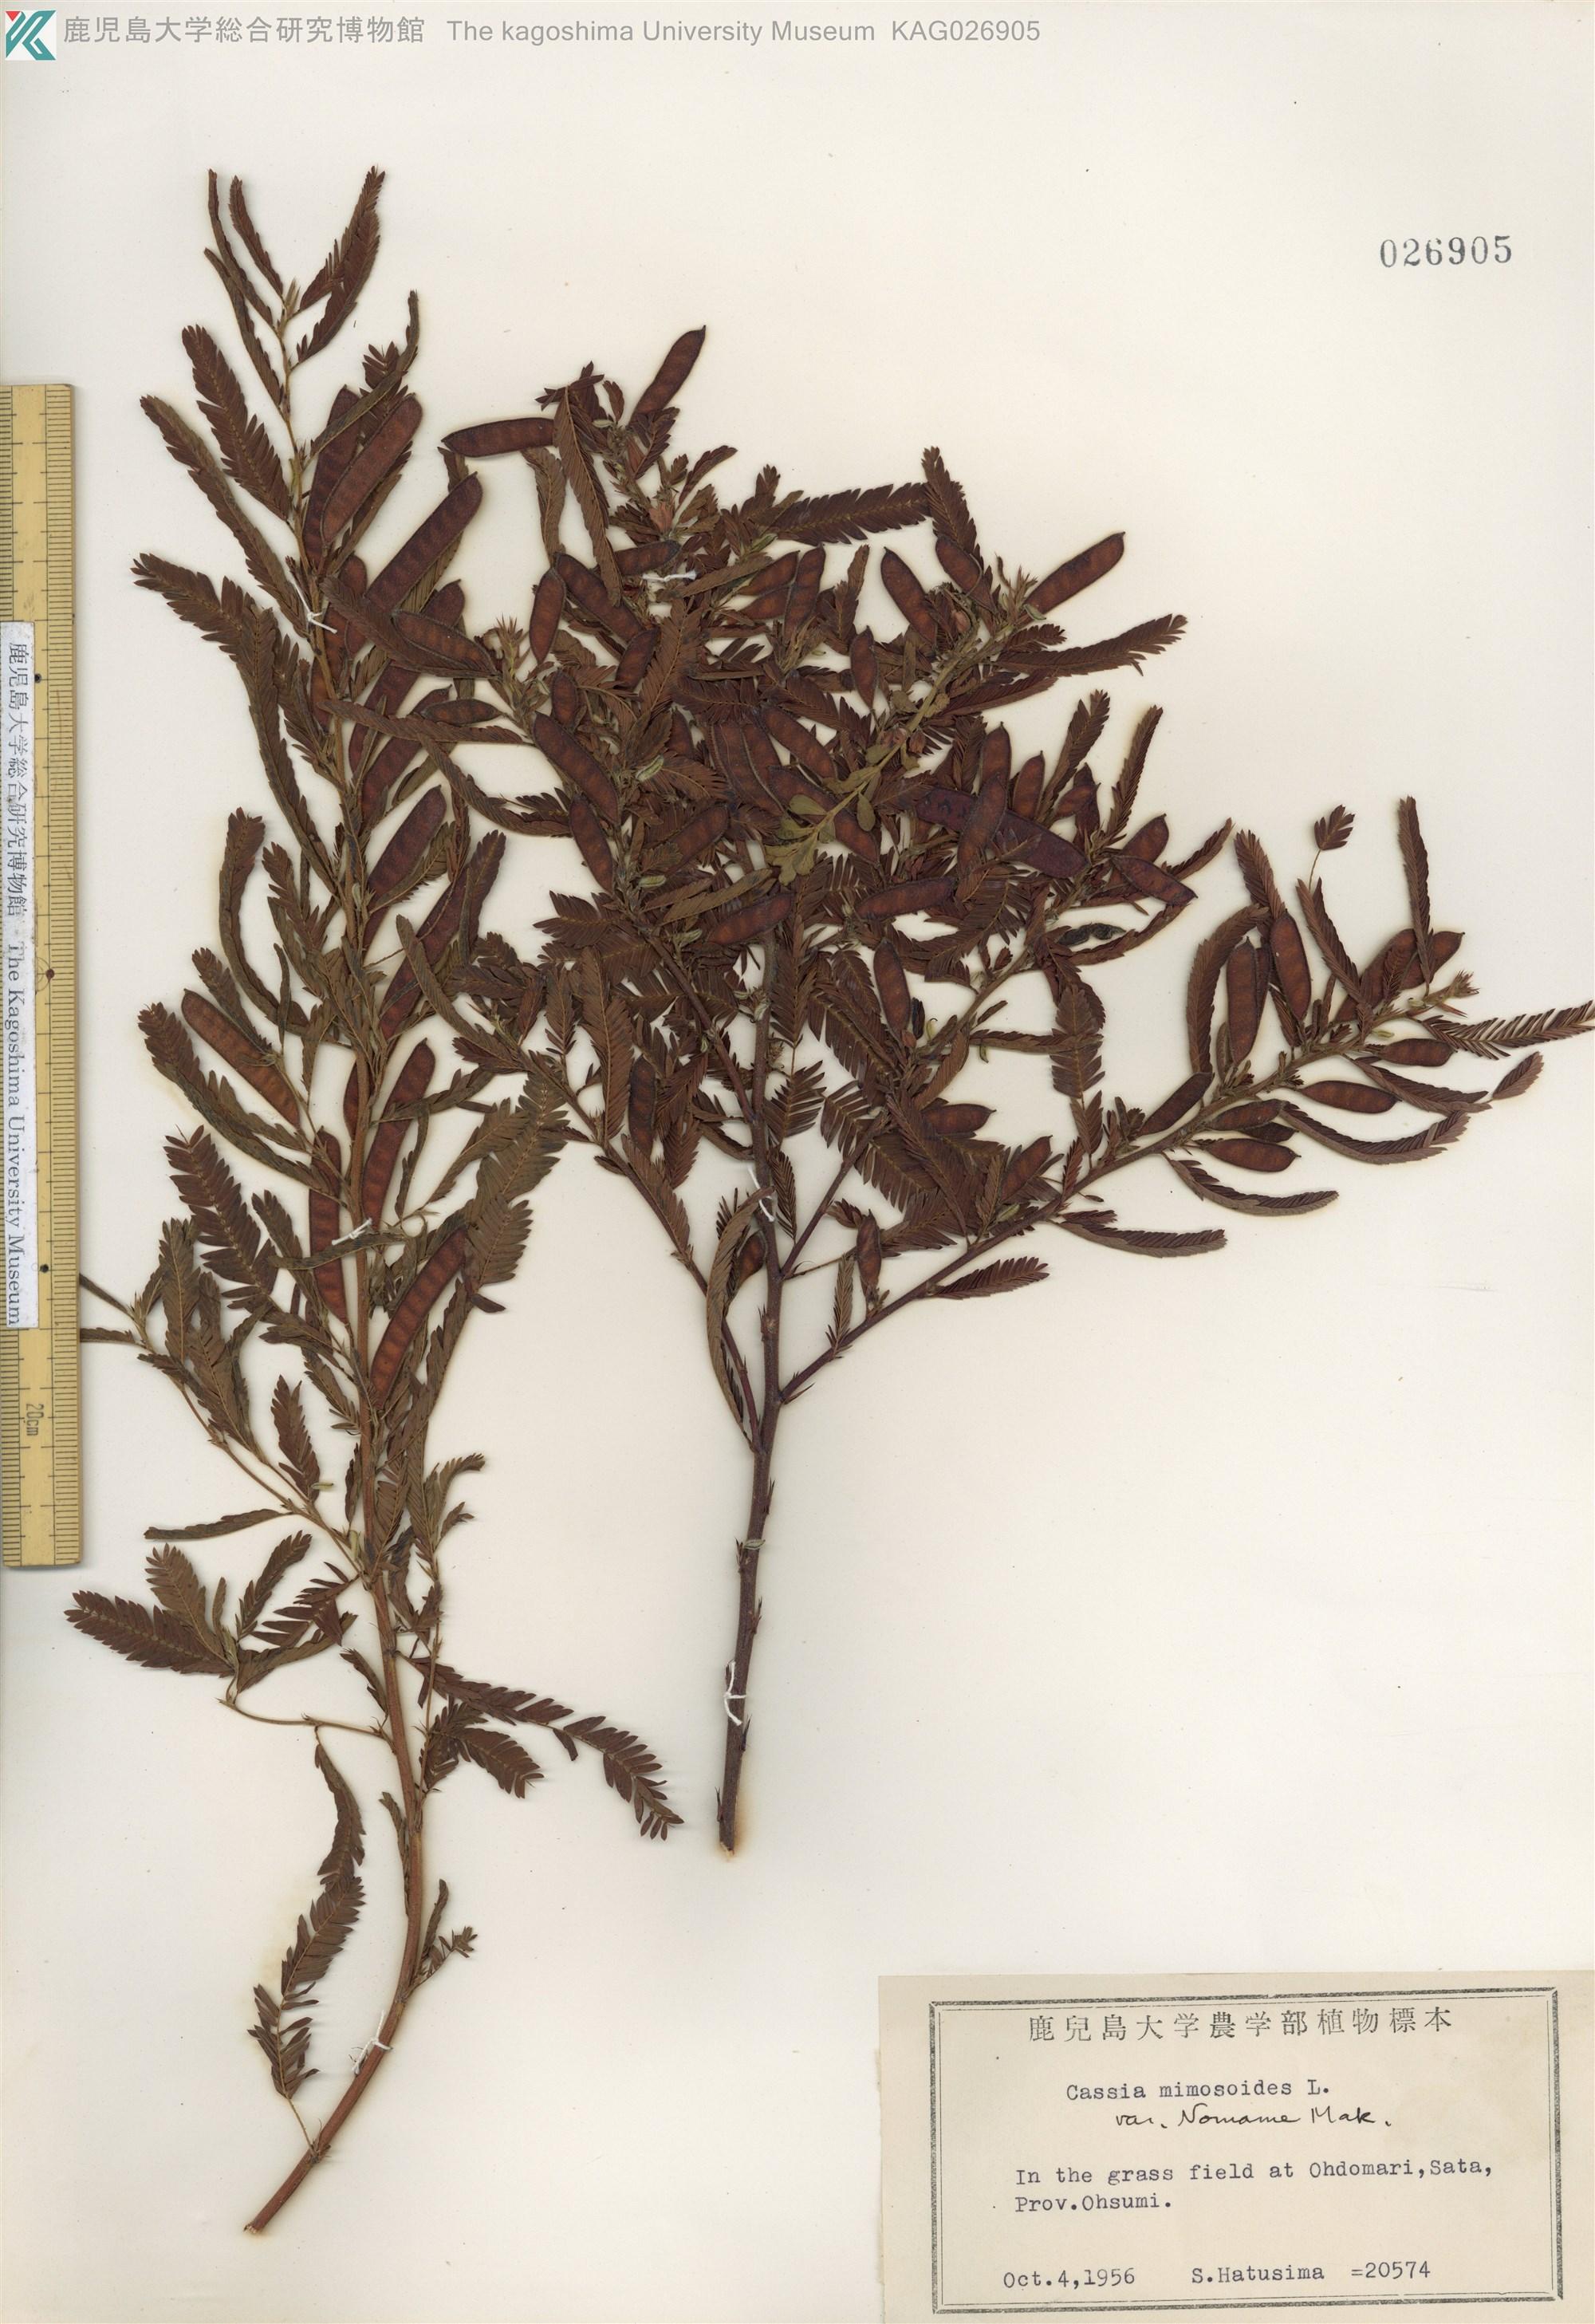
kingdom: Plantae
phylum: Tracheophyta
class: Magnoliopsida
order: Fabales
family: Fabaceae
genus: Chamaecrista
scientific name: Chamaecrista nomame
